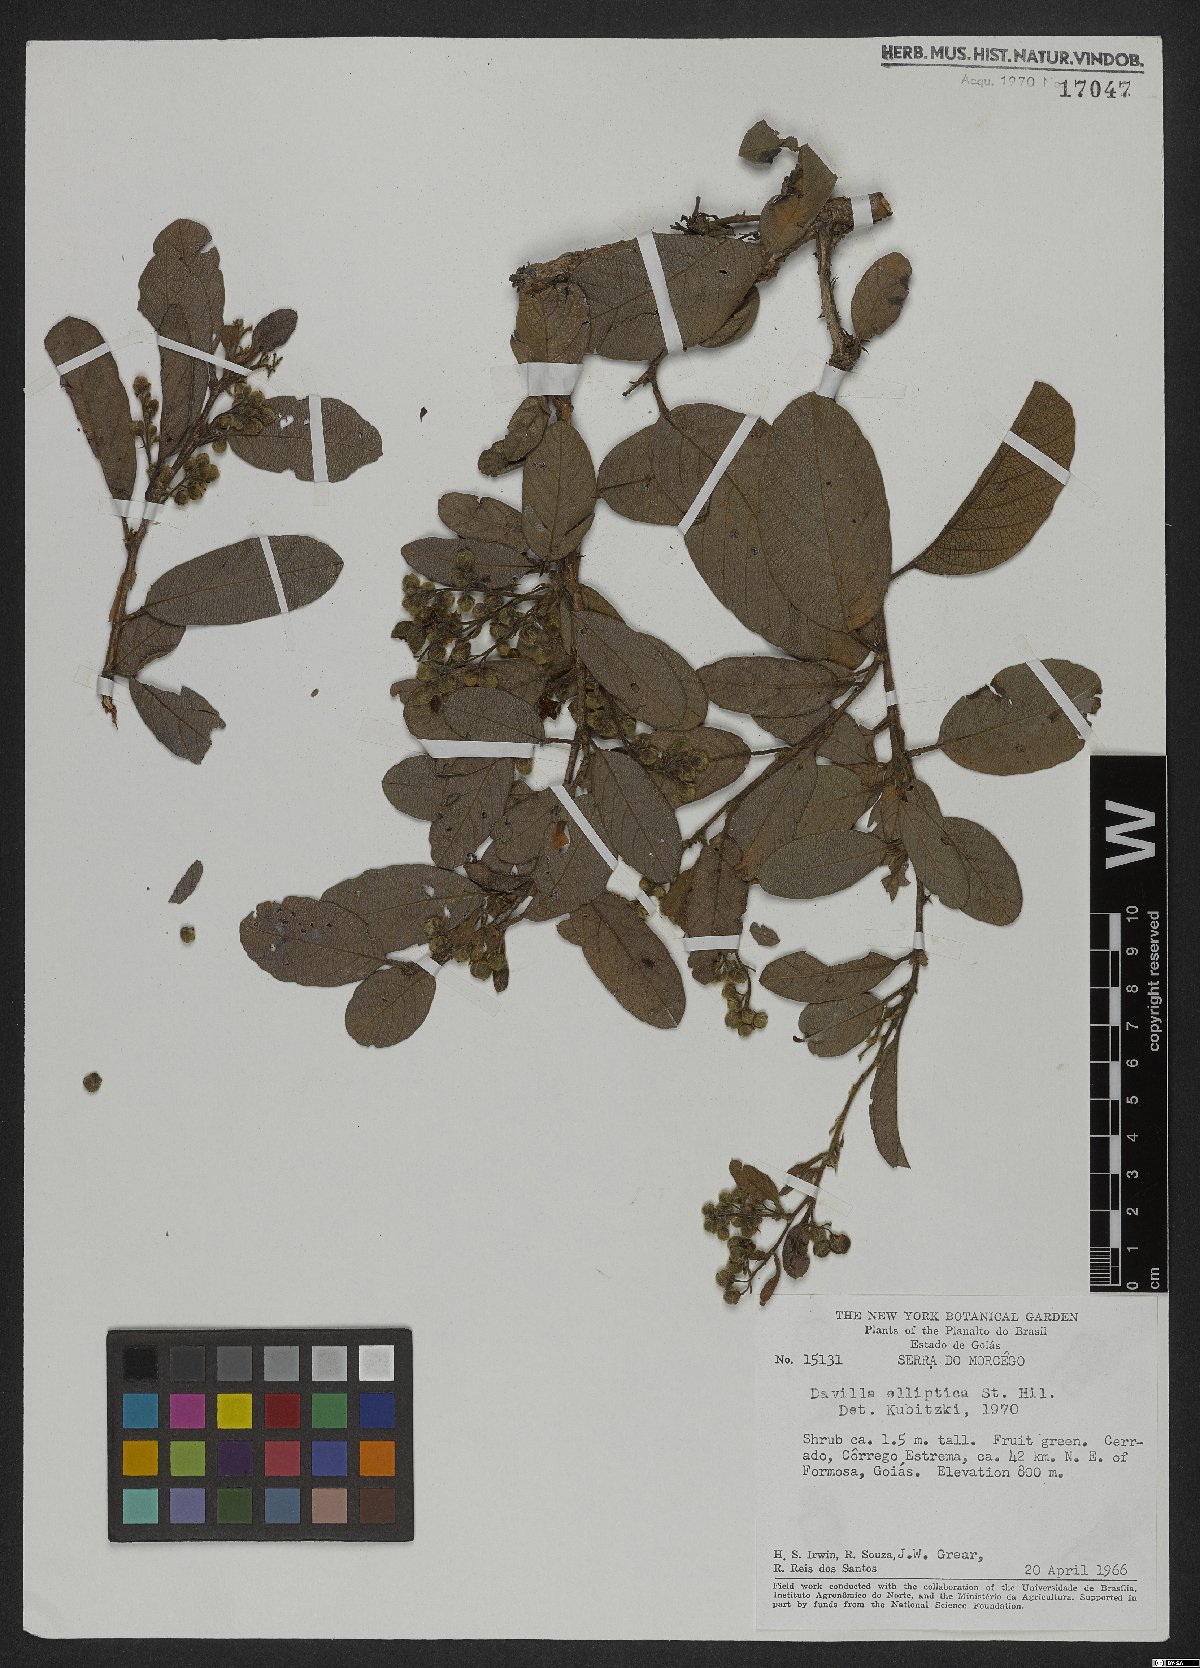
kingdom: Plantae
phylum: Tracheophyta
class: Magnoliopsida
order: Dilleniales
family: Dilleniaceae
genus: Davilla
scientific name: Davilla elliptica
